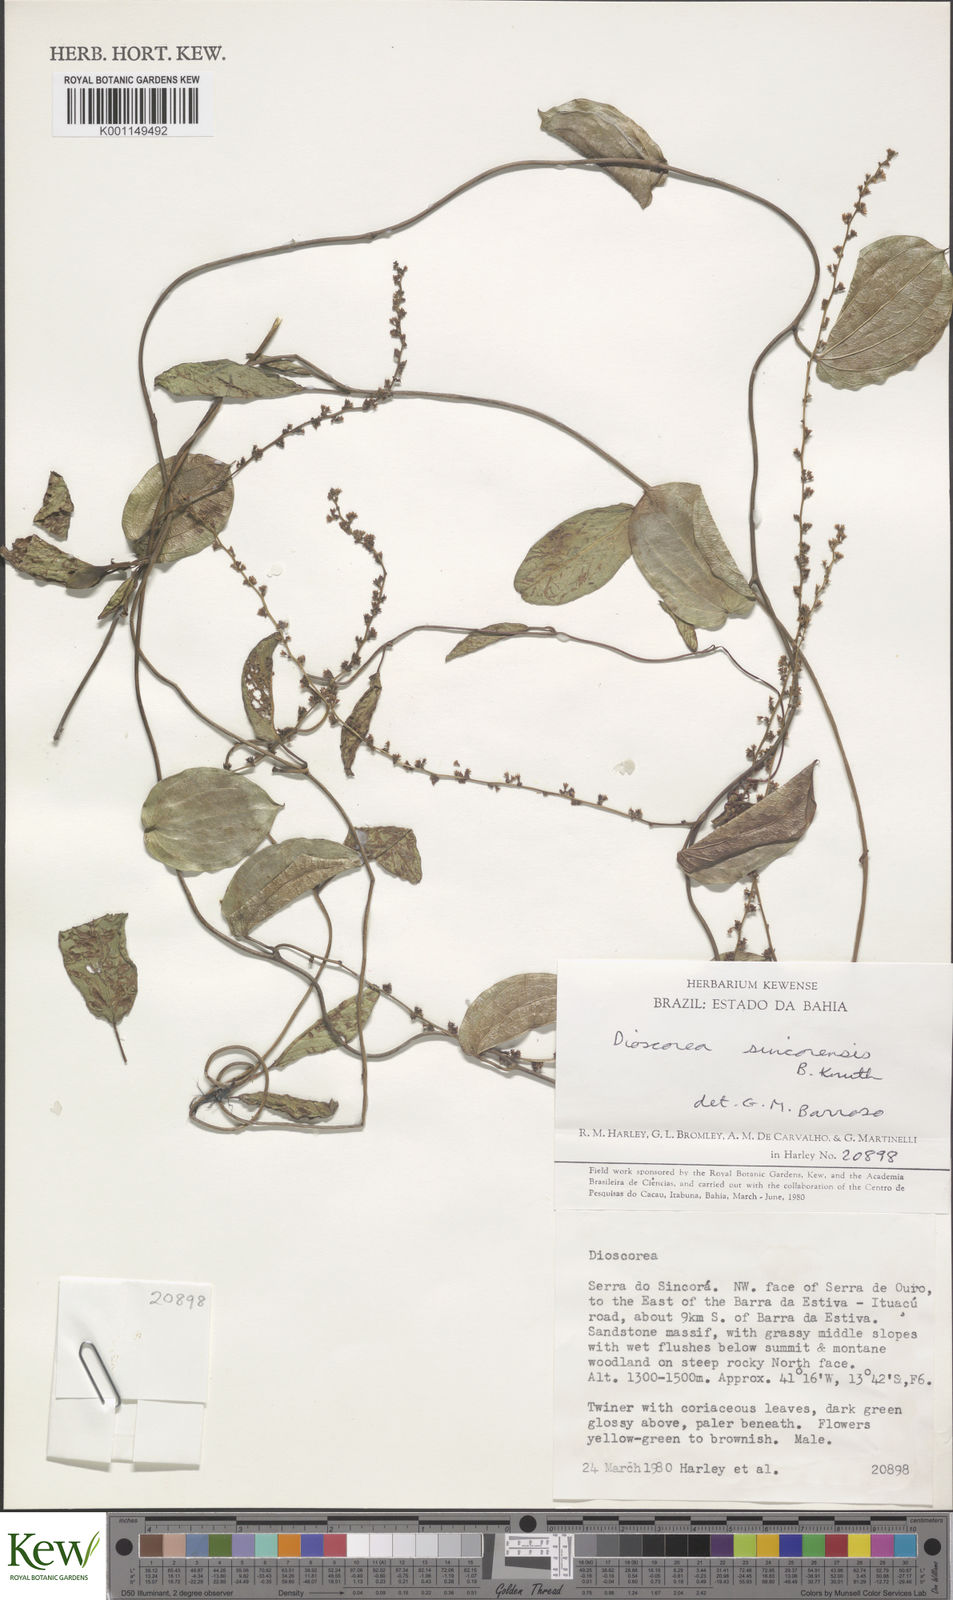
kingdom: Plantae
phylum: Tracheophyta
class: Liliopsida
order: Dioscoreales
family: Dioscoreaceae
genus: Dioscorea
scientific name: Dioscorea sincorensis
